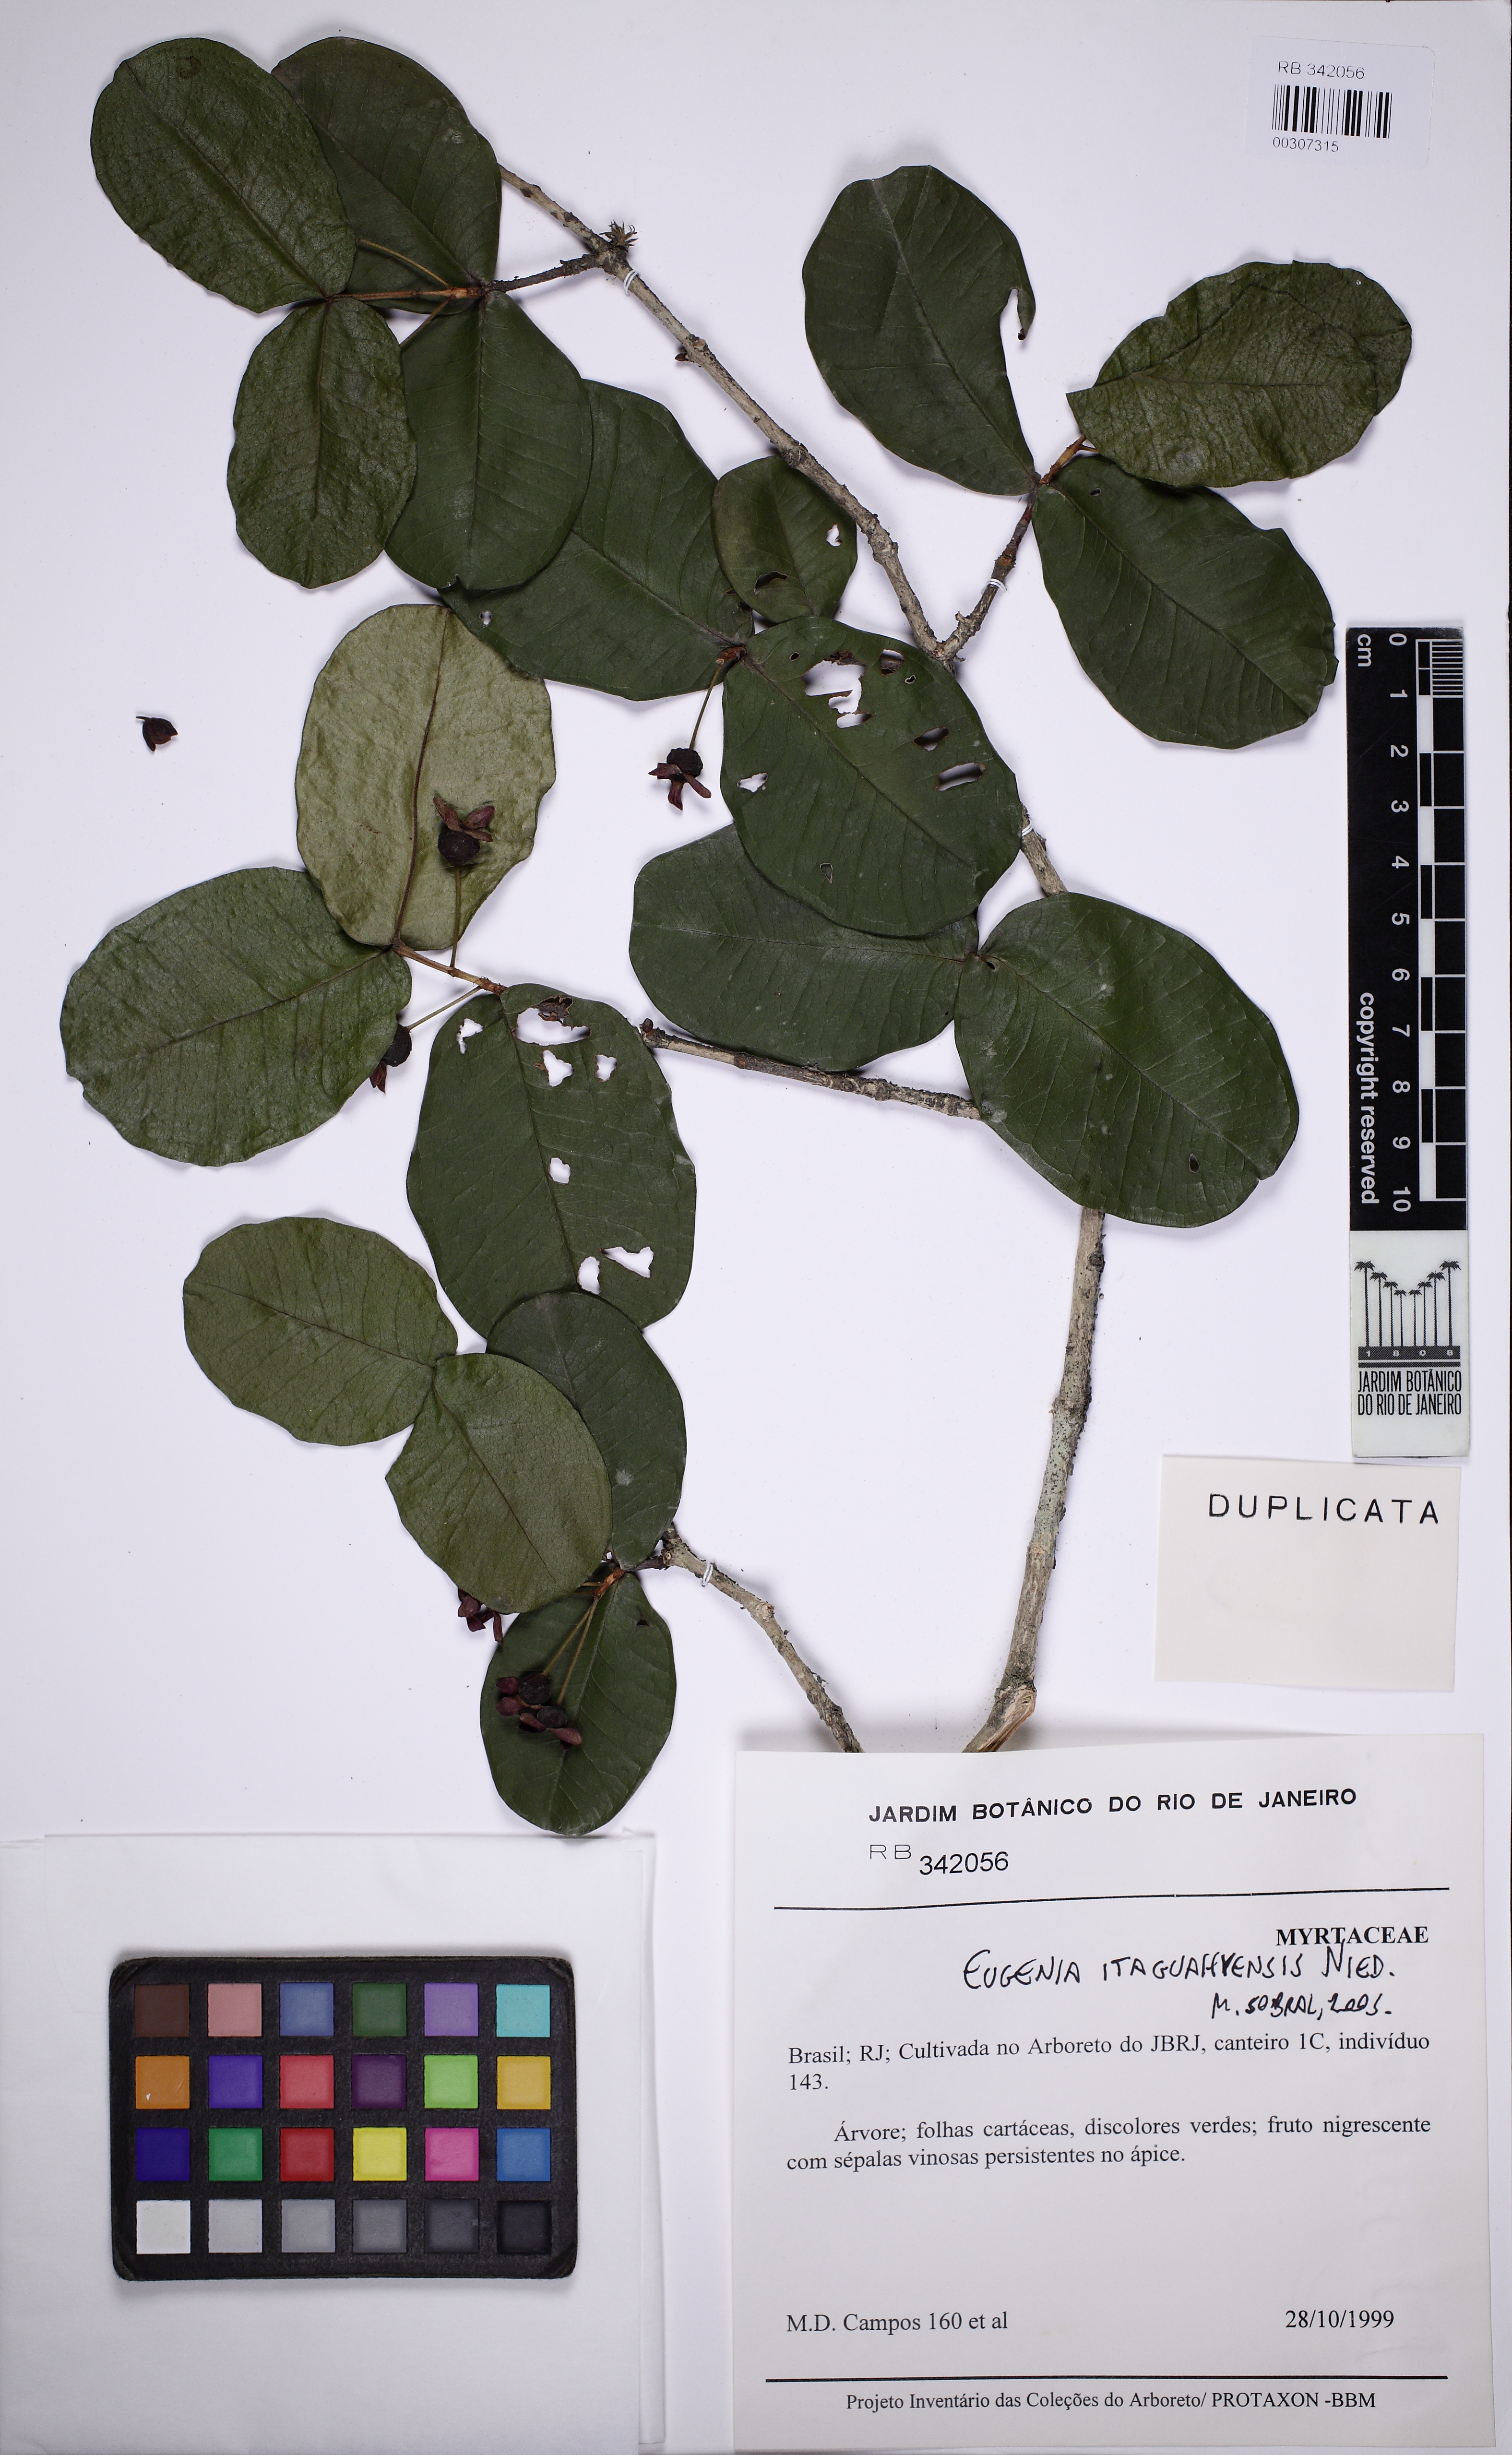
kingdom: Plantae
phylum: Tracheophyta
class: Magnoliopsida
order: Myrtales
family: Myrtaceae
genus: Eugenia
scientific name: Eugenia itaguahiensis
